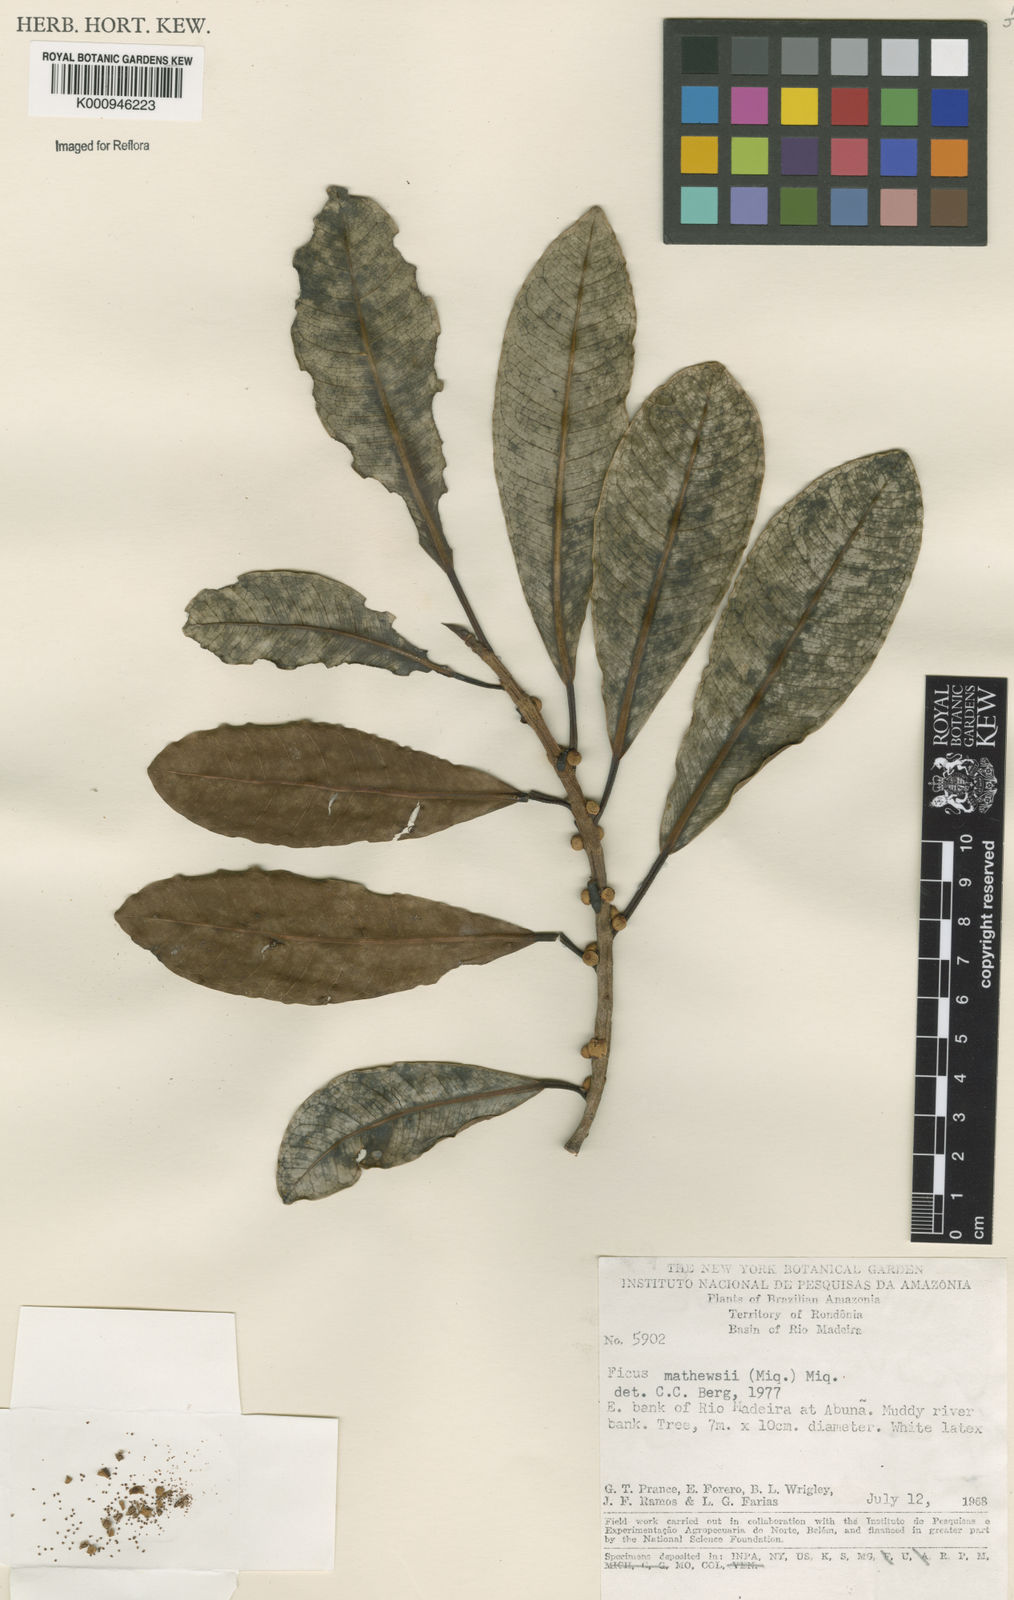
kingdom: Plantae
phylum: Tracheophyta
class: Magnoliopsida
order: Rosales
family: Moraceae
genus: Ficus
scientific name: Ficus mathewsii
